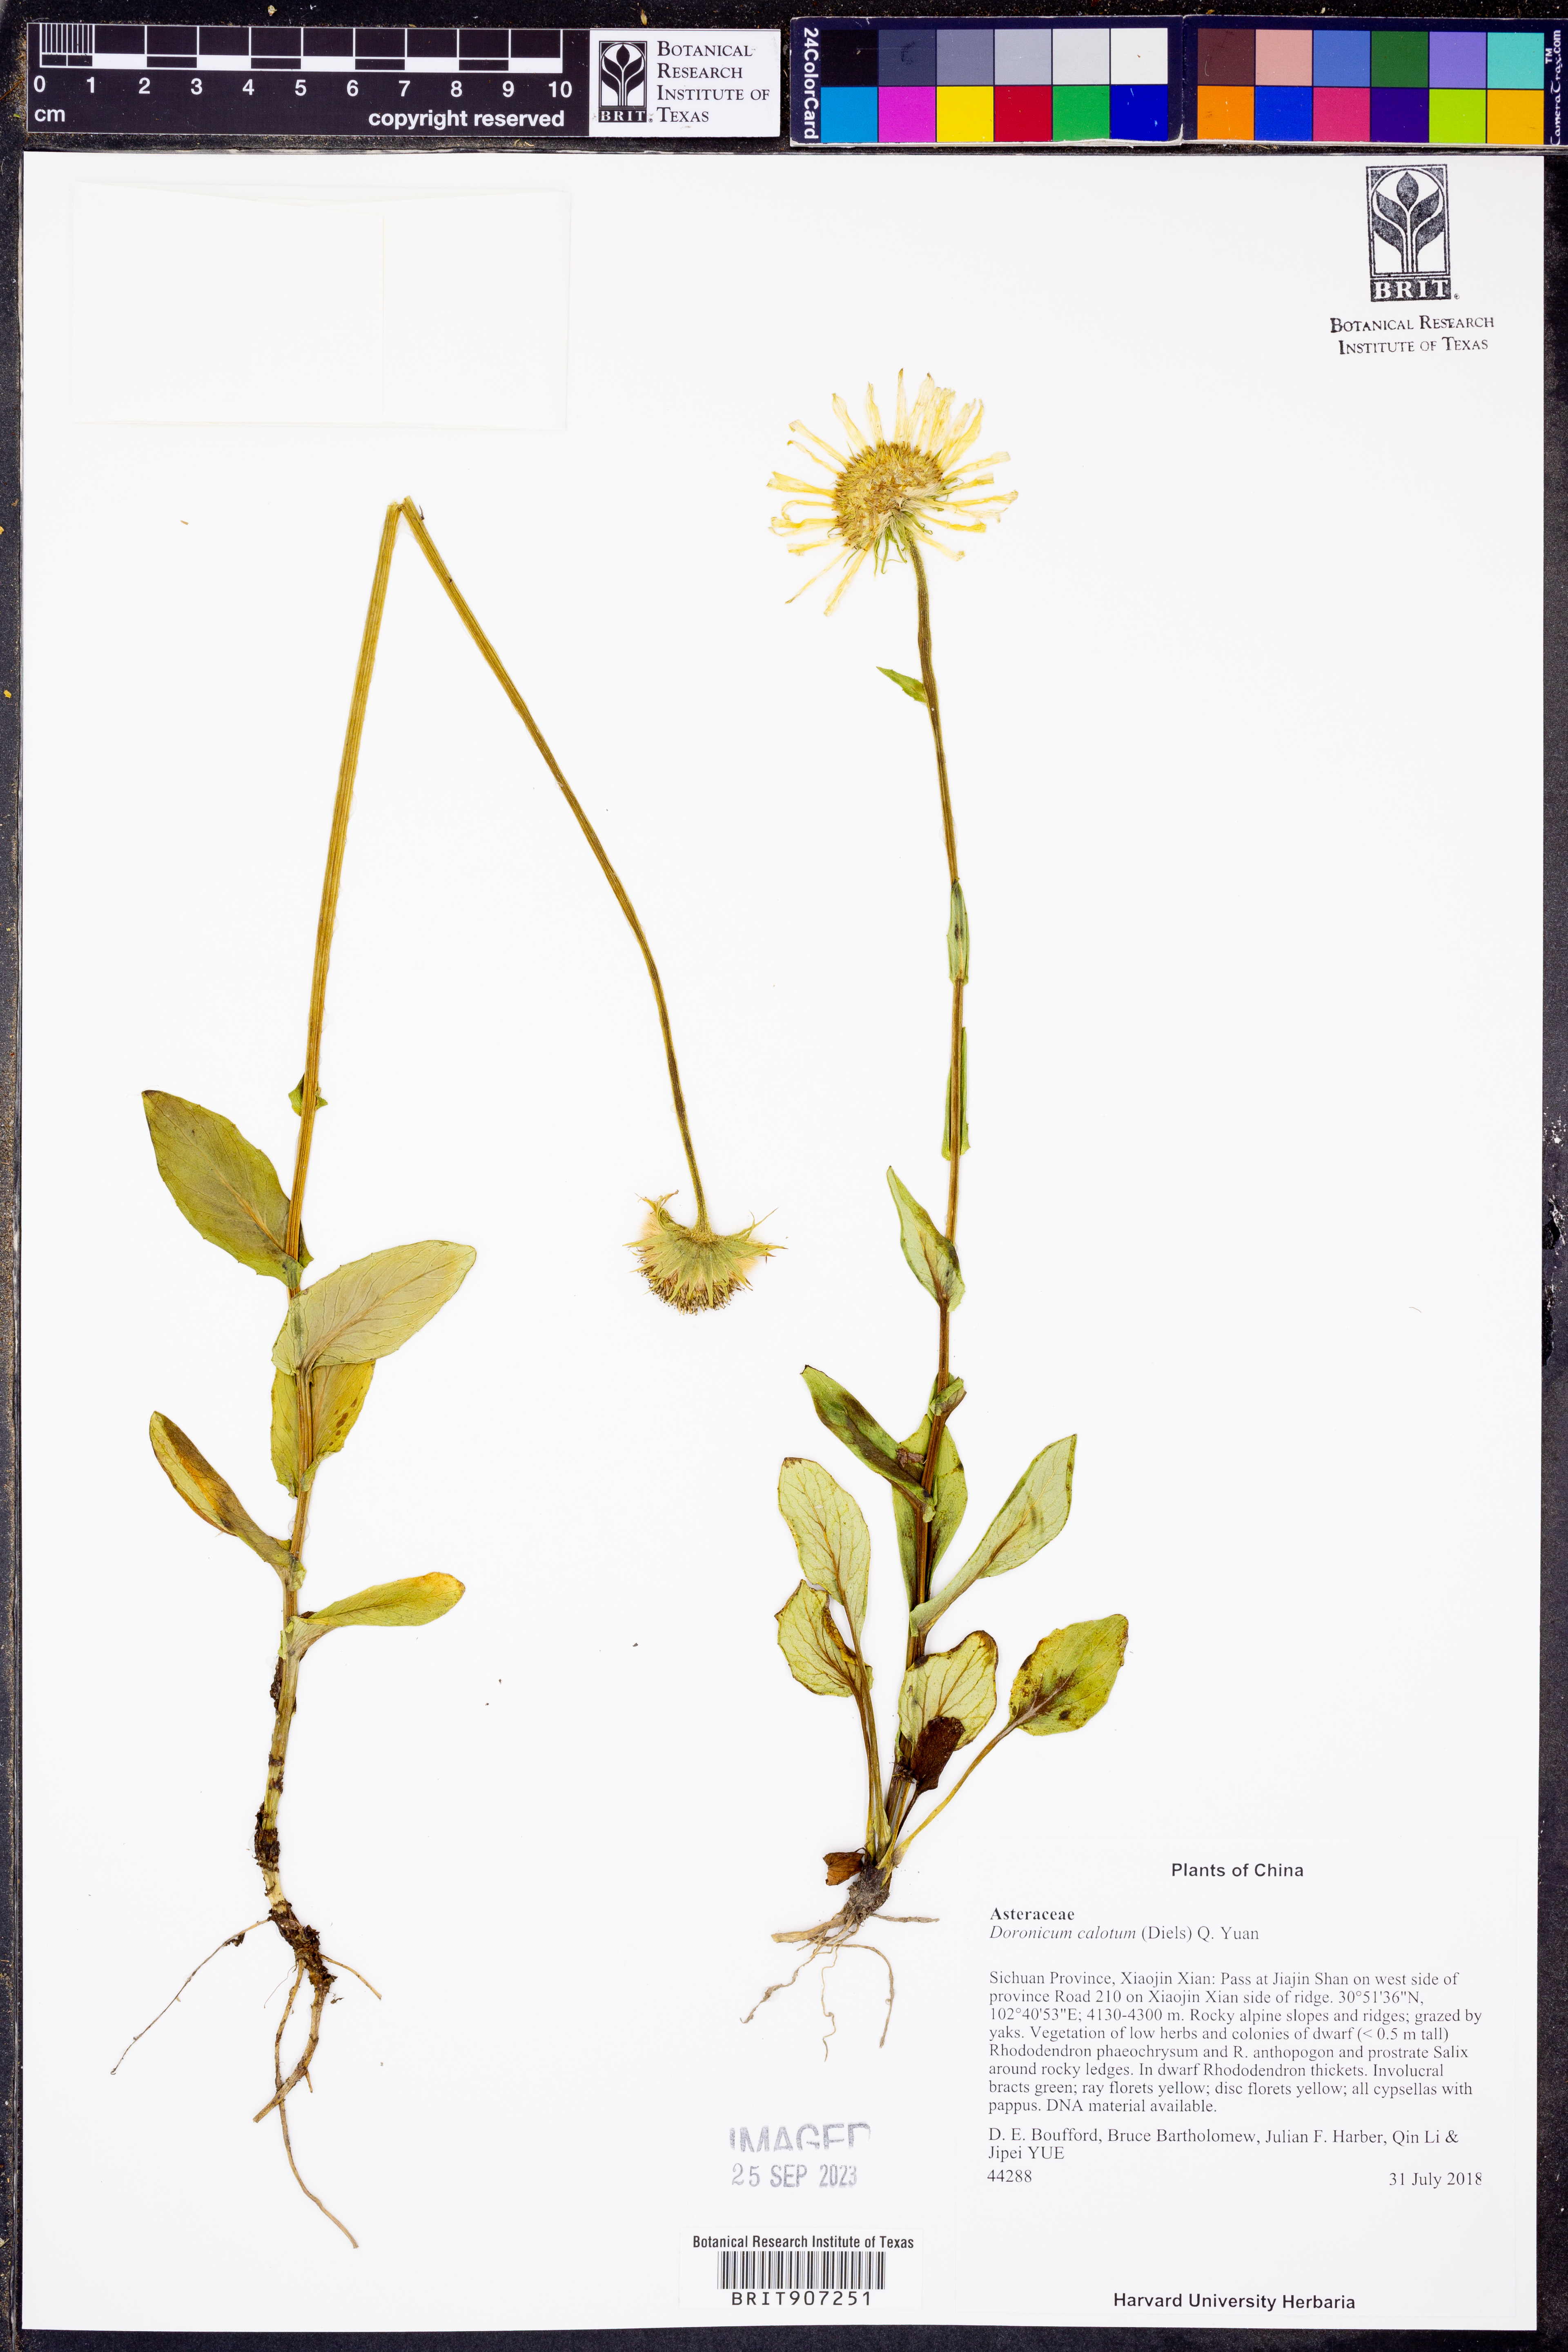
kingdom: Plantae
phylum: Tracheophyta
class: Magnoliopsida
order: Asterales
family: Asteraceae
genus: Doronicum
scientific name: Doronicum calotum
